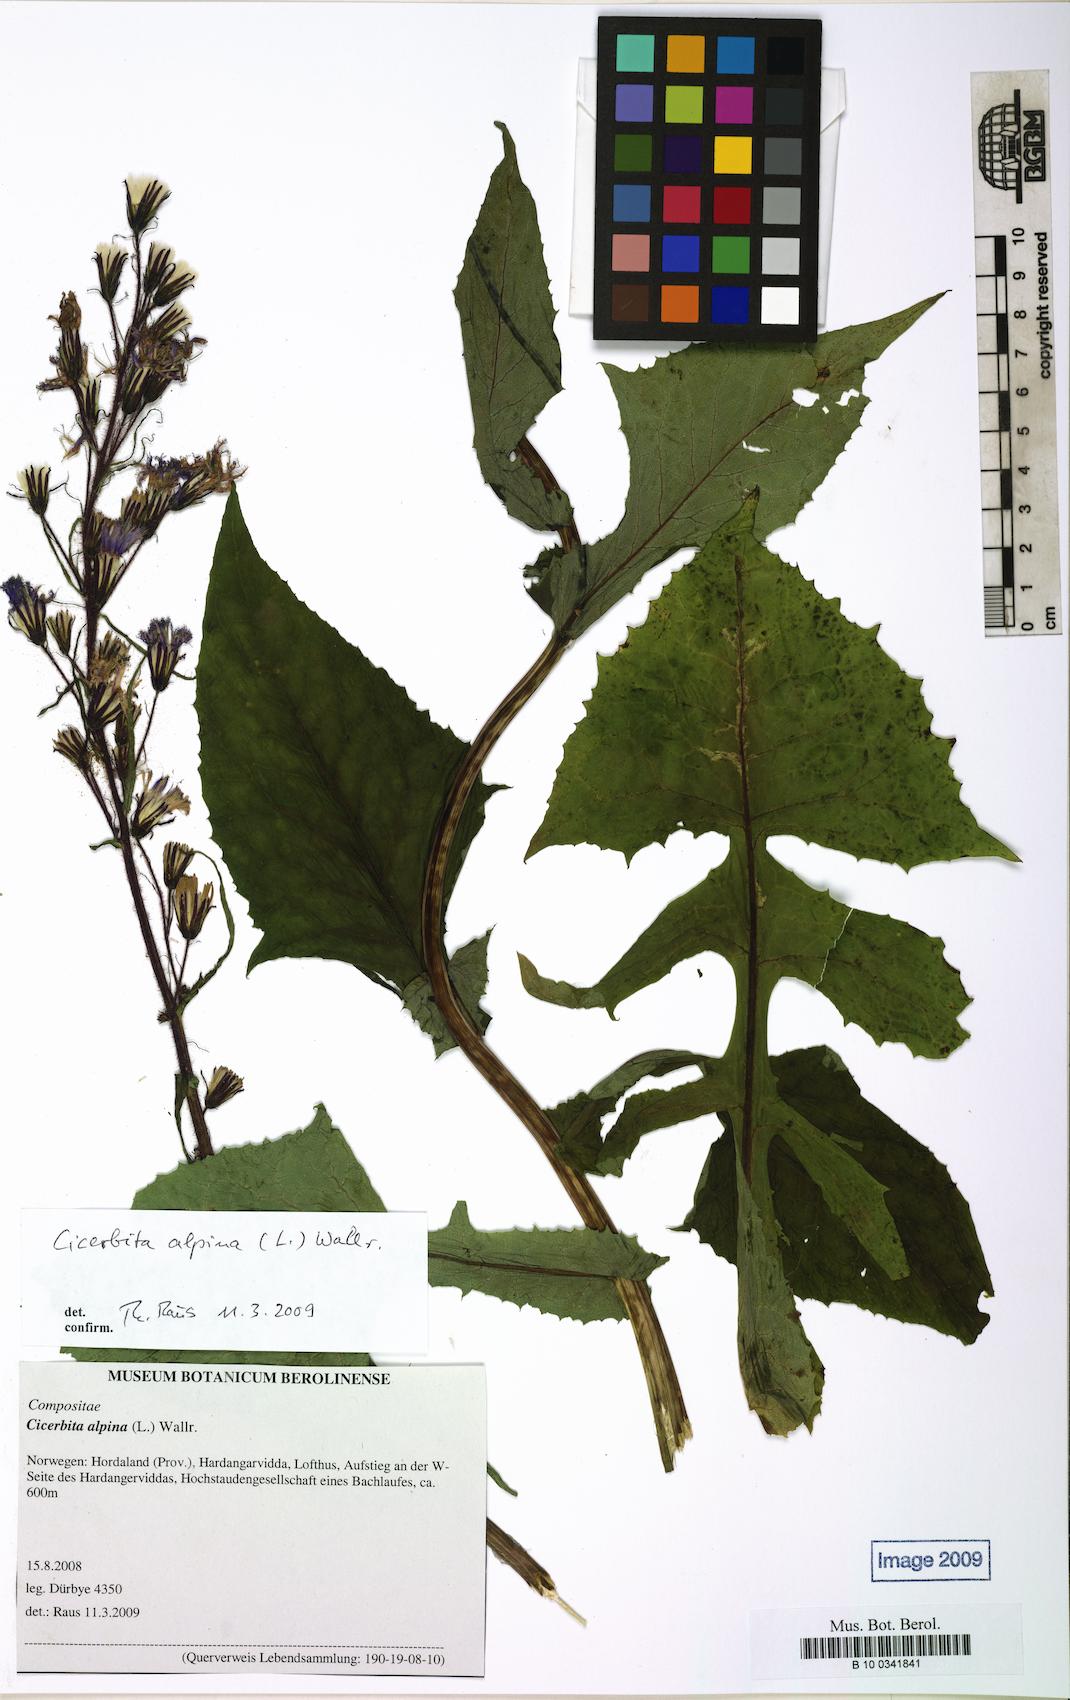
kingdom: Plantae
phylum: Tracheophyta
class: Magnoliopsida
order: Asterales
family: Asteraceae
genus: Cicerbita
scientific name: Cicerbita alpina
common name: Alpine blue-sow-thistle
